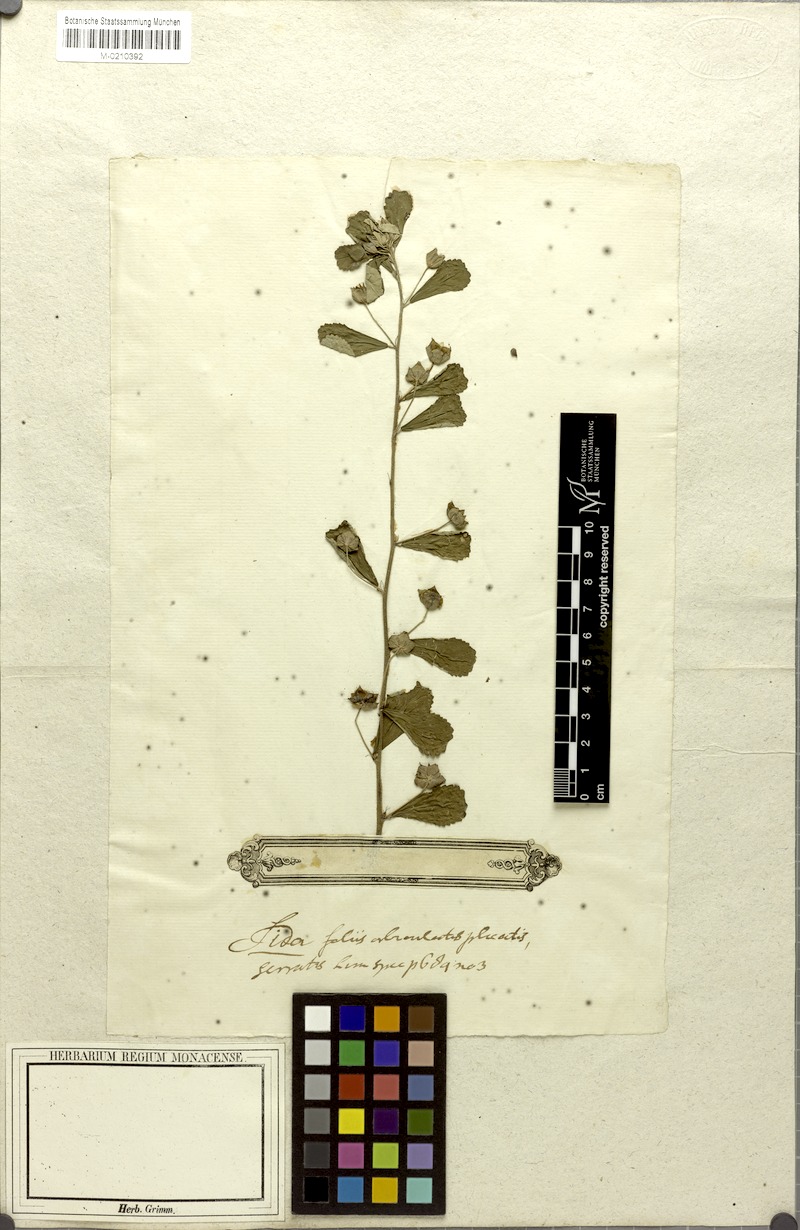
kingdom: Plantae
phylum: Tracheophyta
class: Magnoliopsida
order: Malvales
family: Malvaceae
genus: Sida
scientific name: Sida rhombifolia
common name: Queensland-hemp
